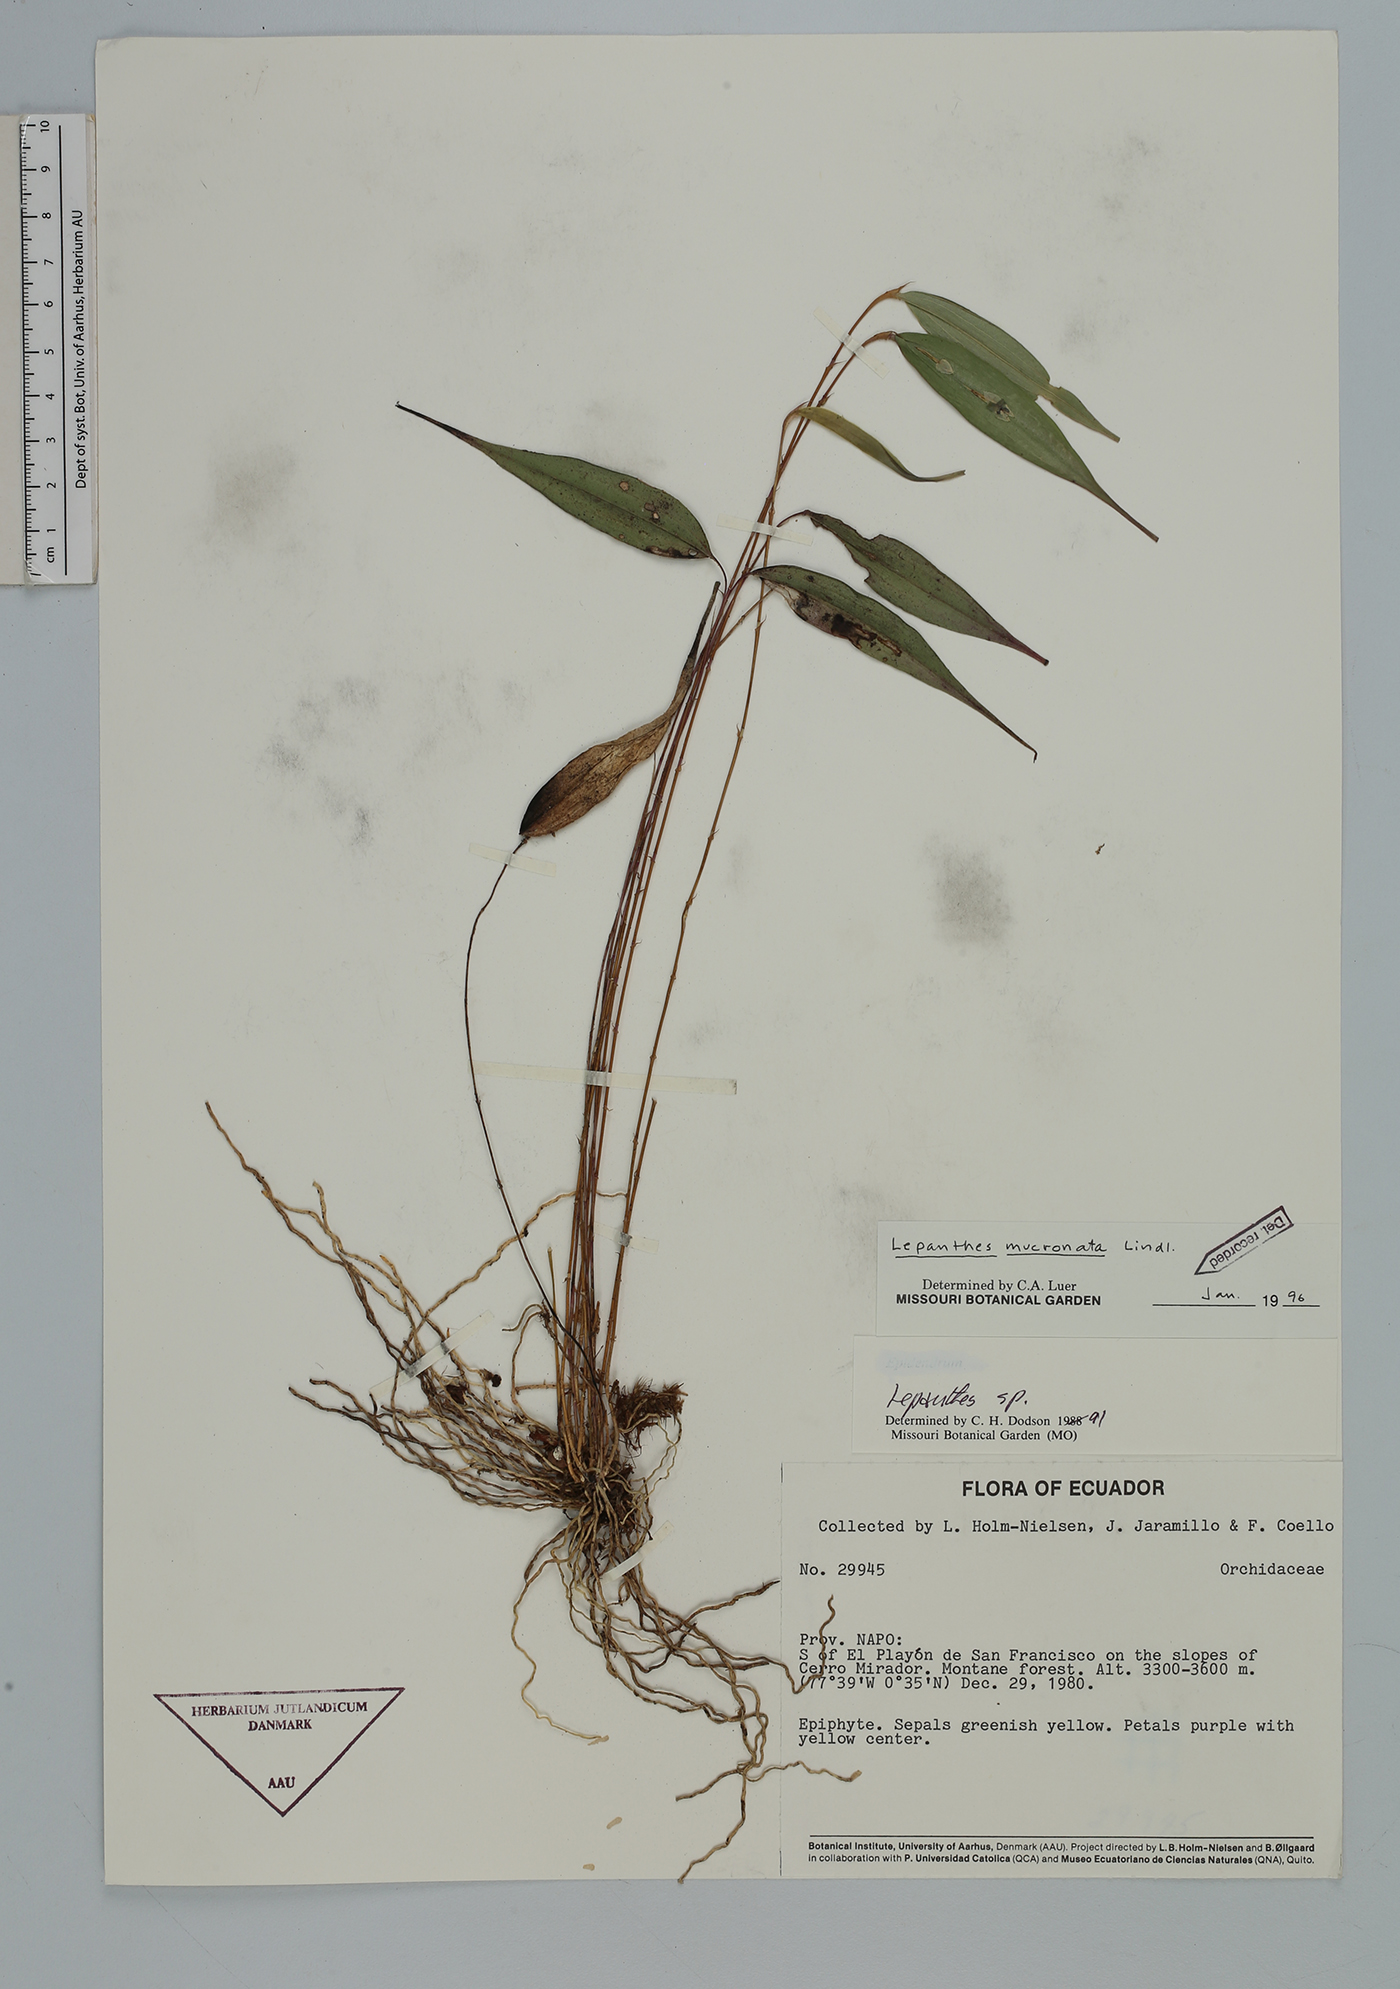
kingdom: Plantae
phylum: Tracheophyta
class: Liliopsida
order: Asparagales
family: Orchidaceae
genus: Lepanthes
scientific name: Lepanthes mucronata
